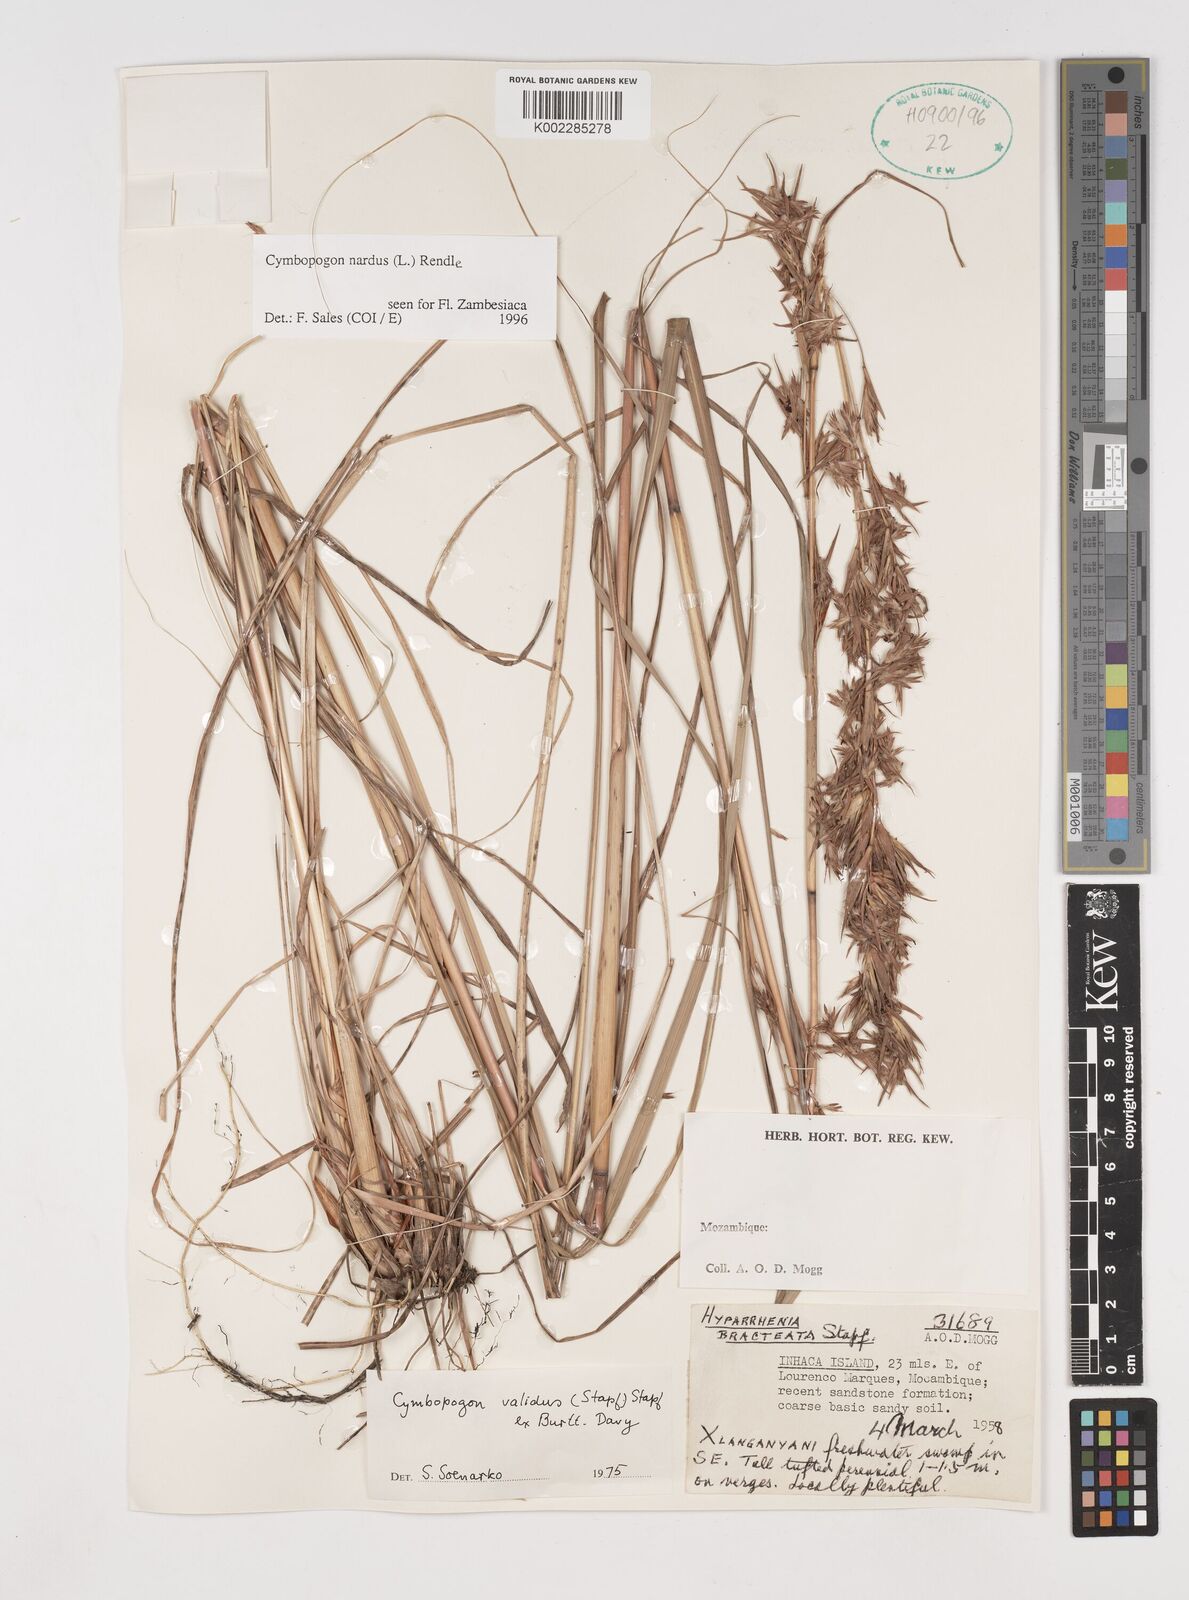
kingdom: Plantae
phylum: Tracheophyta
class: Liliopsida
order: Poales
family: Poaceae
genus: Cymbopogon
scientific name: Cymbopogon nardus
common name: Giant turpentine grass
